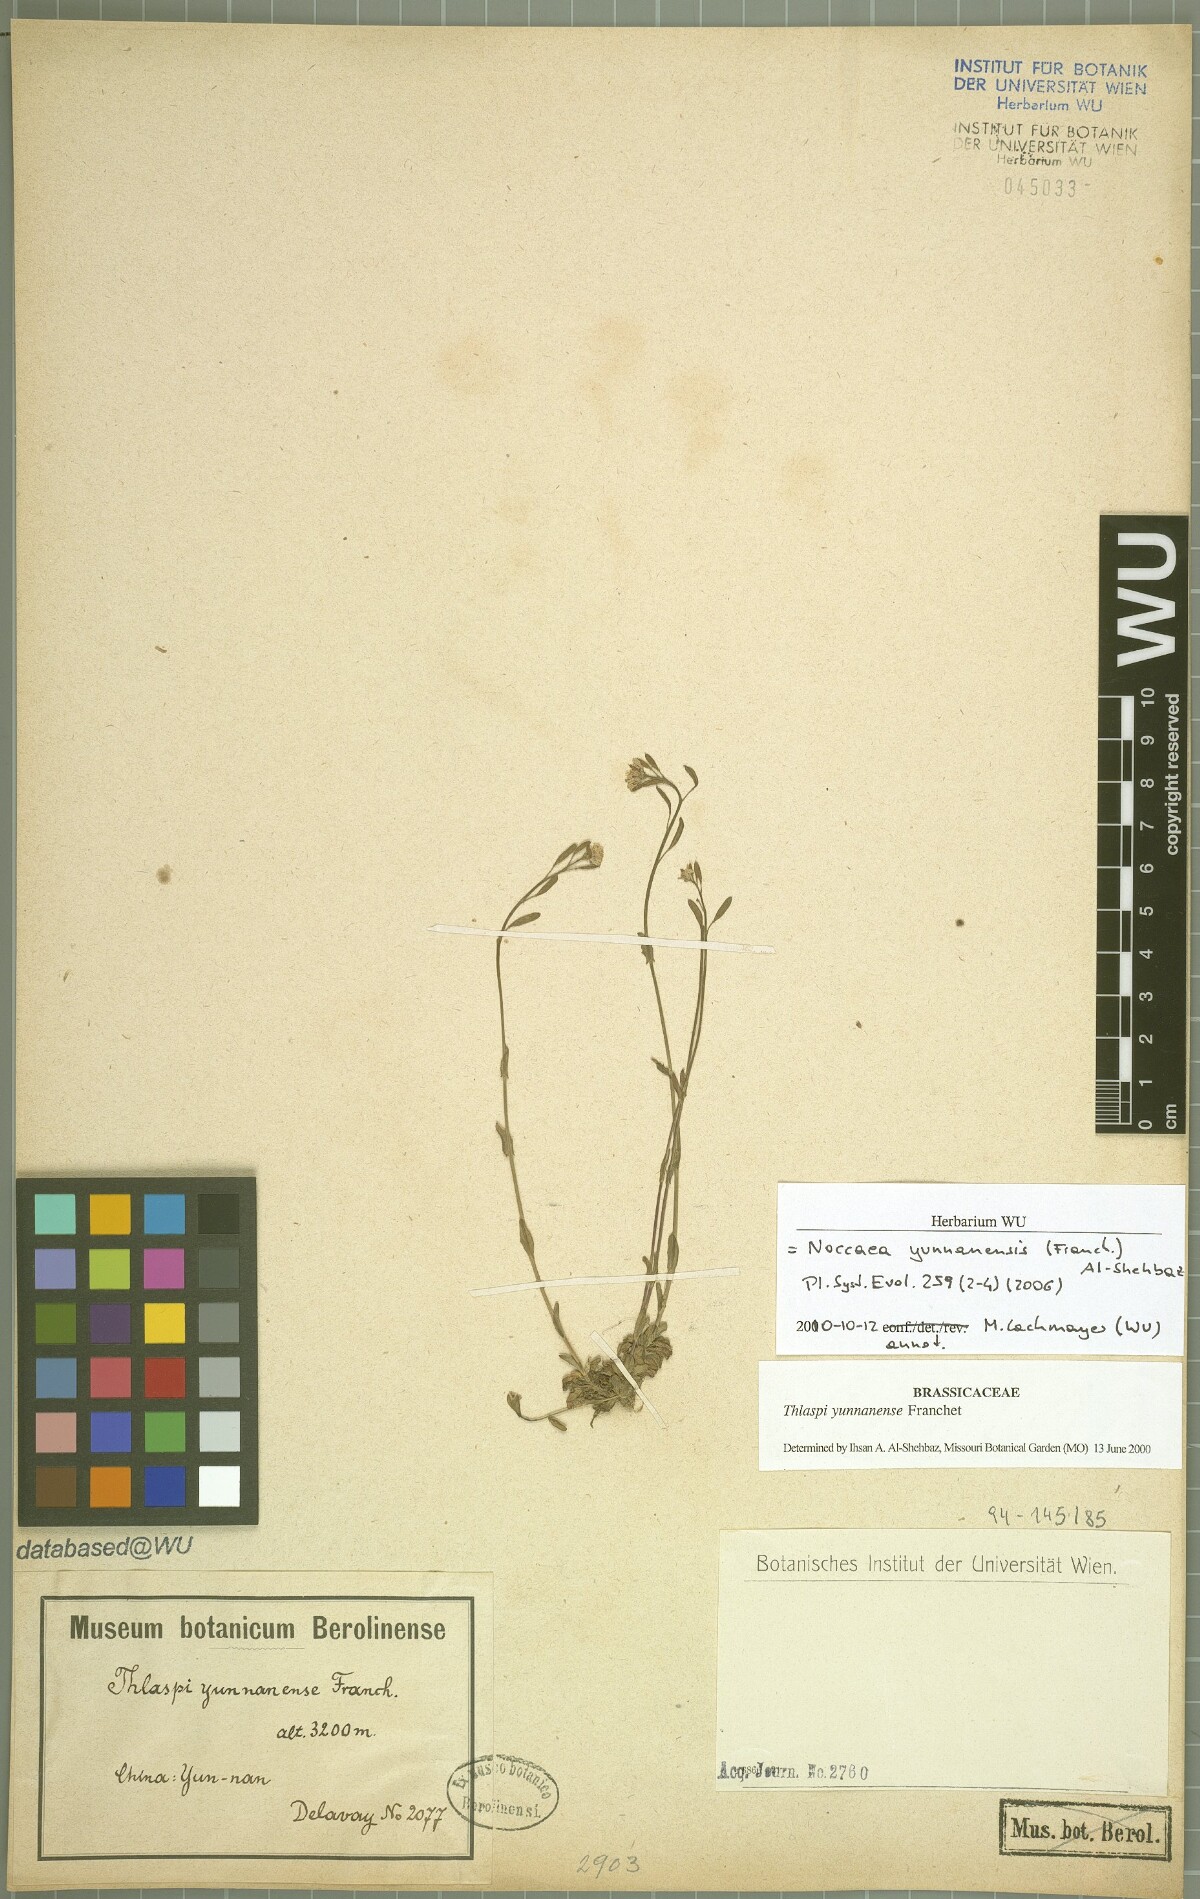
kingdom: Plantae
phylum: Tracheophyta
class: Magnoliopsida
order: Brassicales
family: Brassicaceae
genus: Thlaspi
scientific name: Thlaspi
